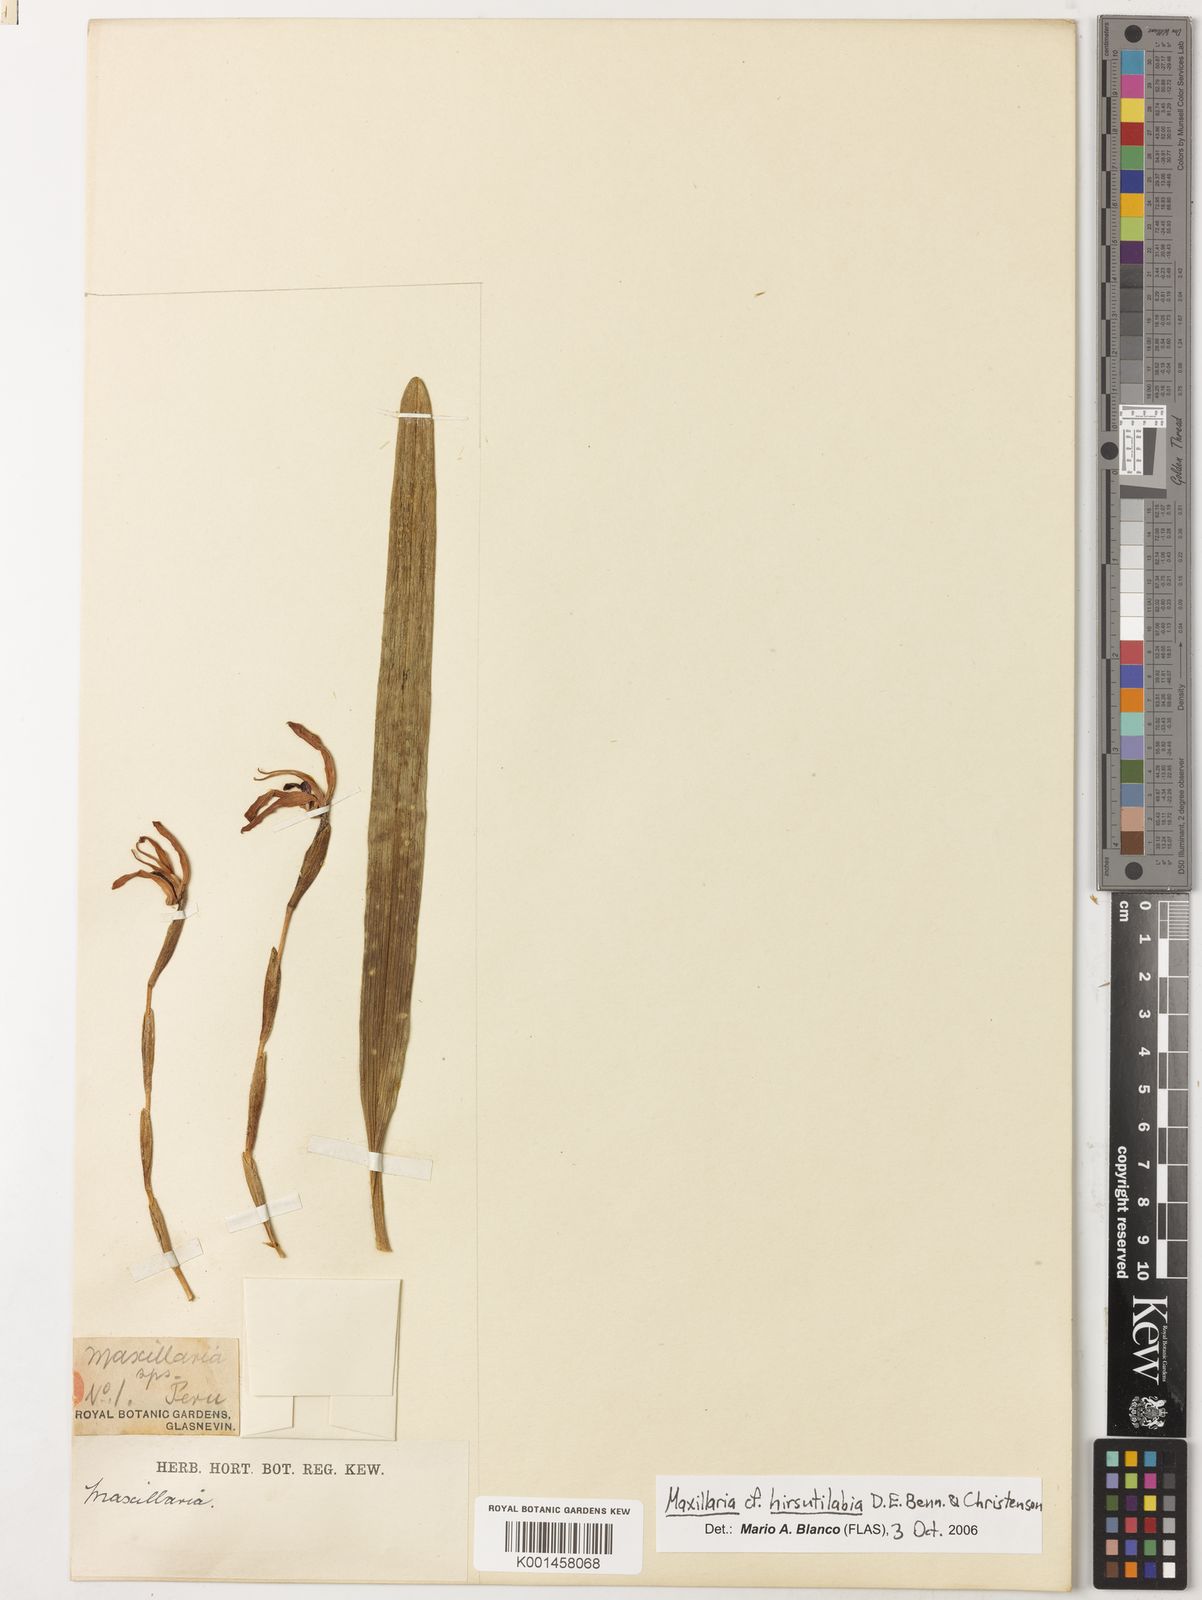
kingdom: Plantae
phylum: Tracheophyta
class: Liliopsida
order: Asparagales
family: Orchidaceae
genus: Maxillaria
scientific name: Maxillaria hirsutilabia
